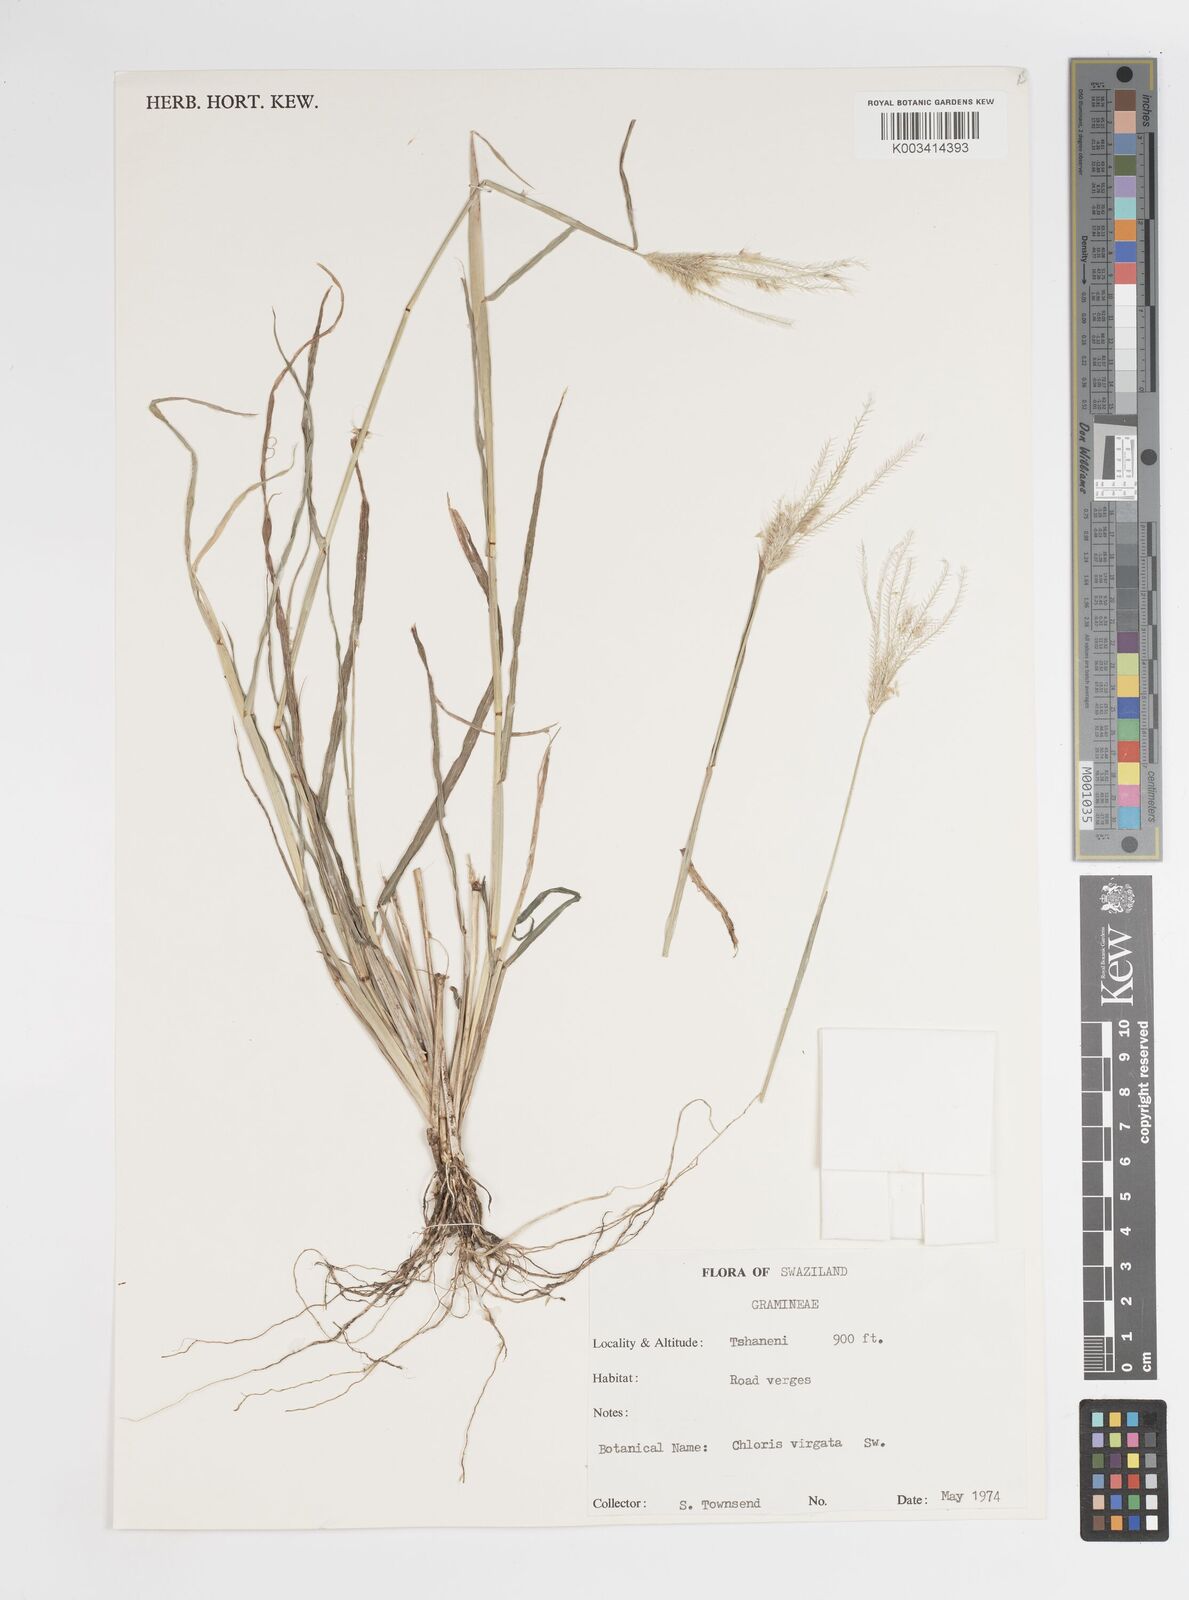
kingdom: Plantae
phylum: Tracheophyta
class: Liliopsida
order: Poales
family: Poaceae
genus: Chloris
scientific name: Chloris virgata
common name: Feathery rhodes-grass
